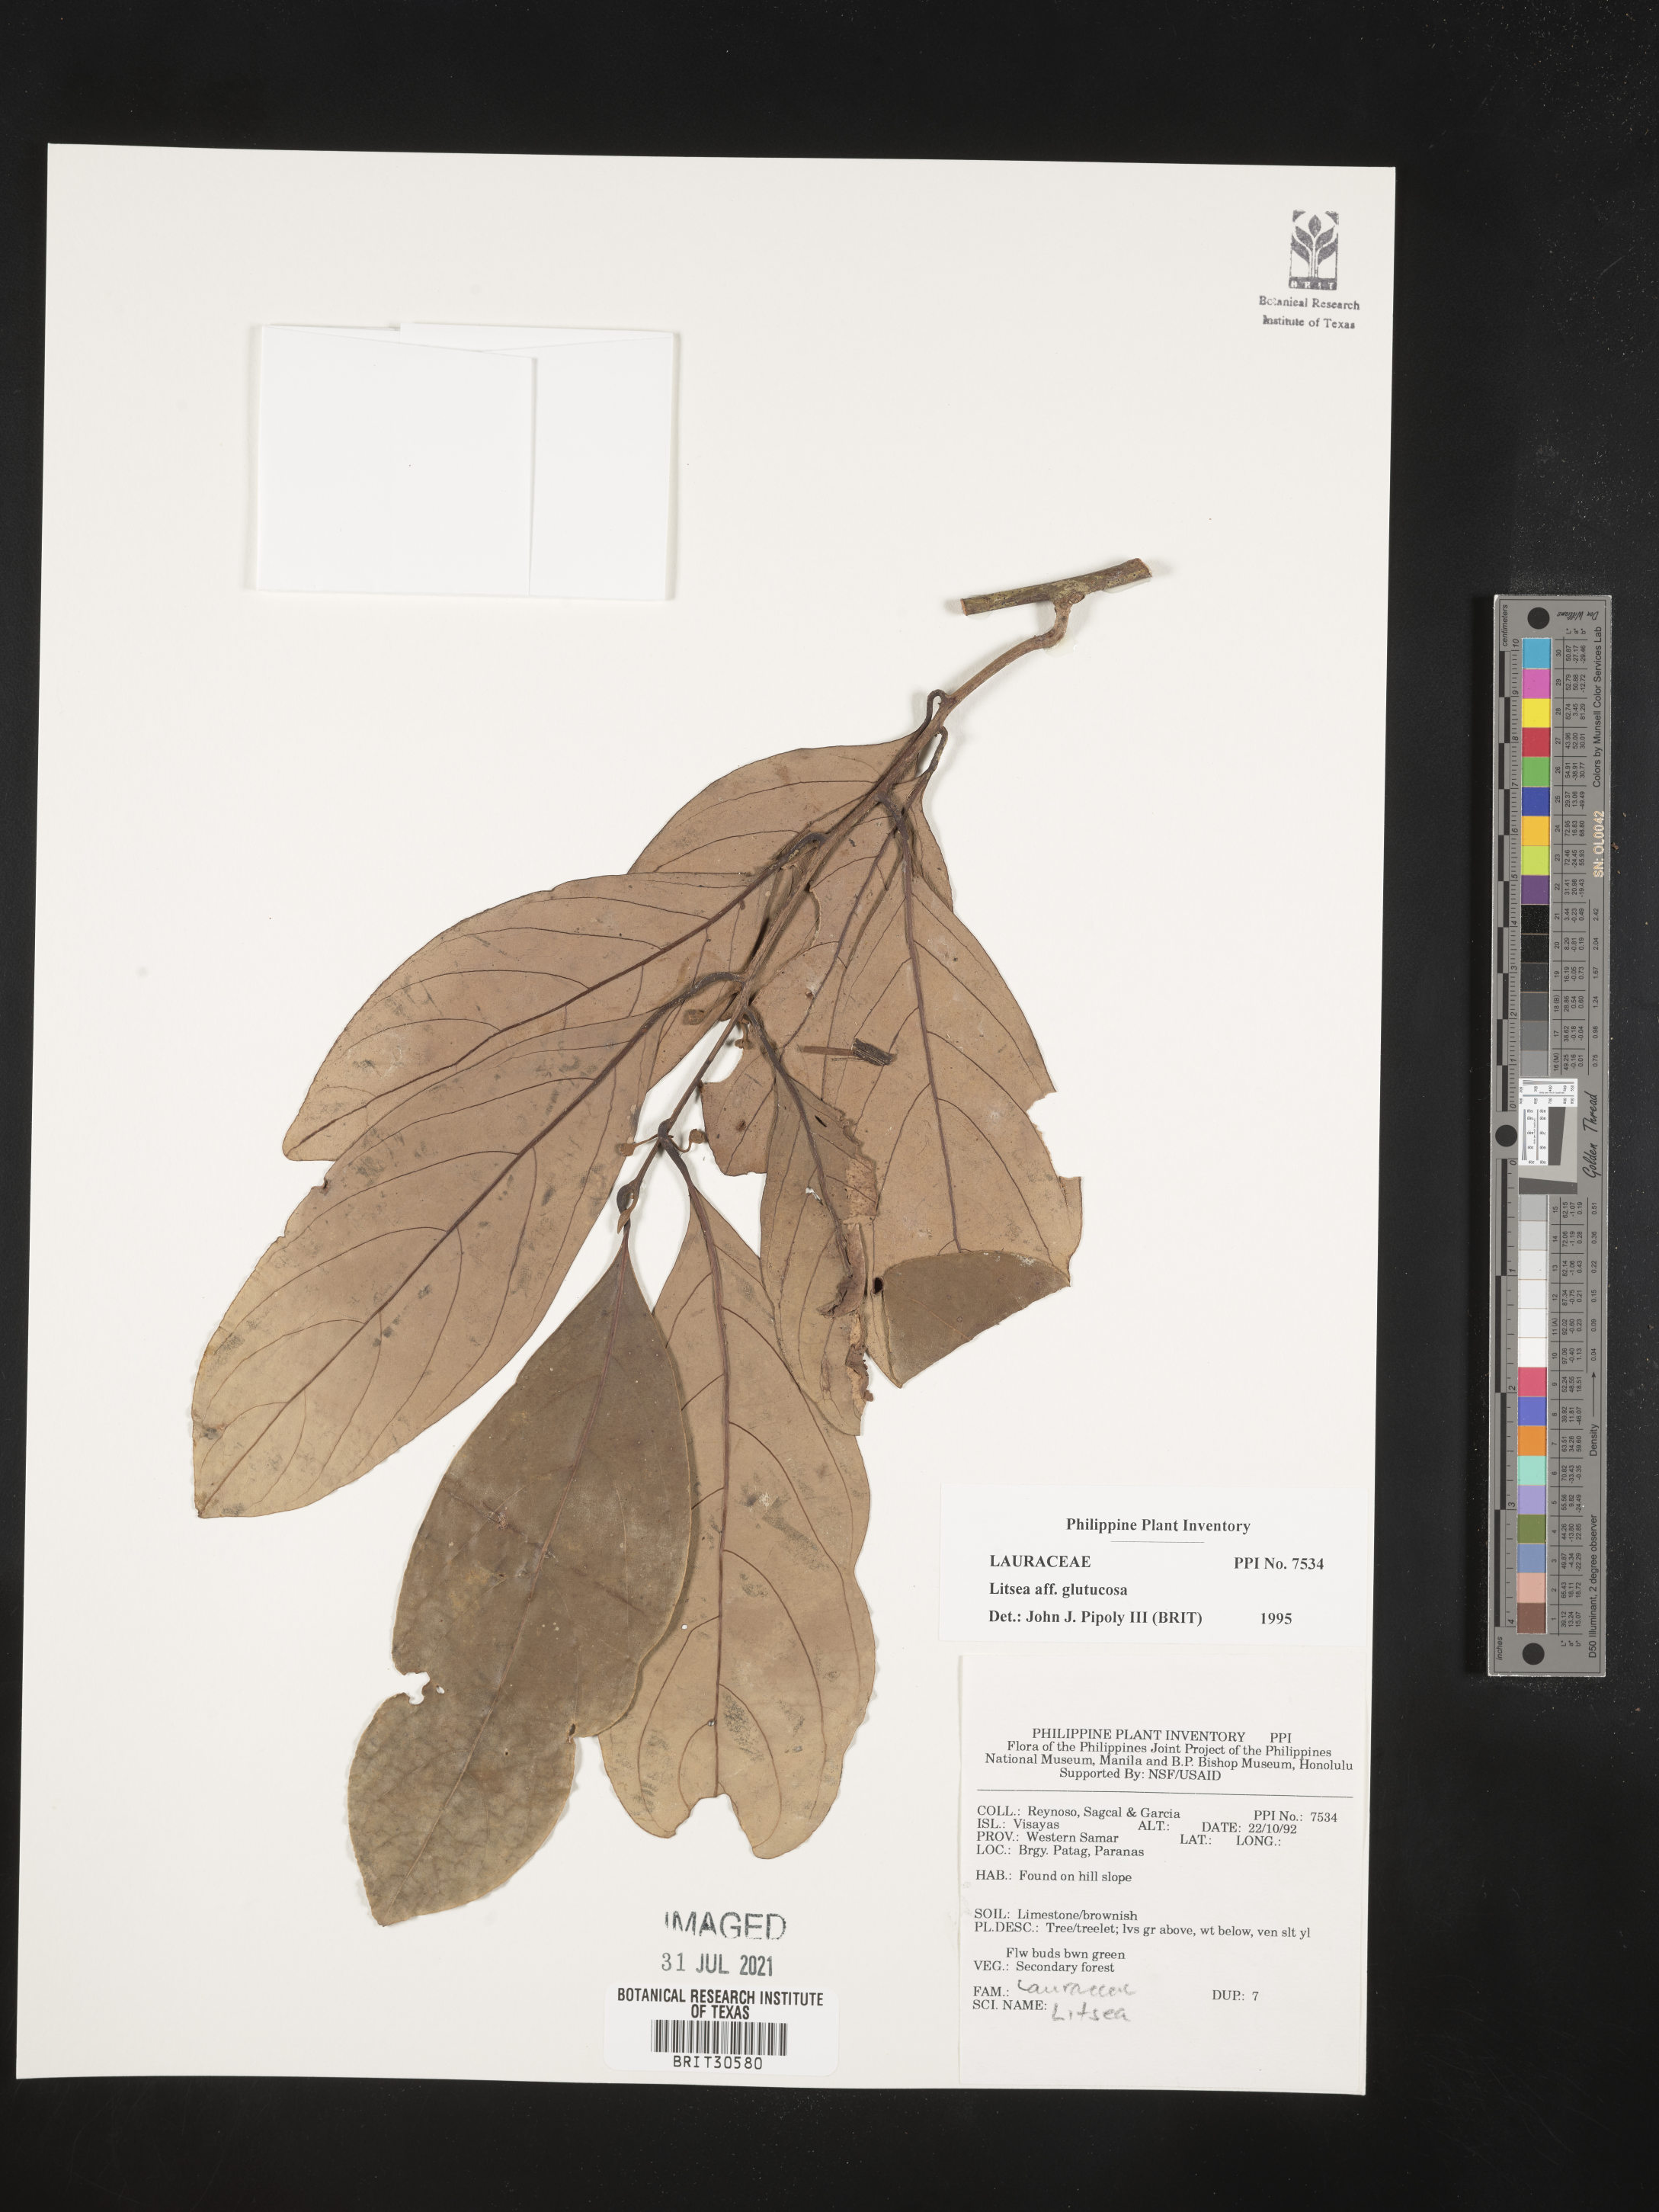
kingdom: Plantae
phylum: Tracheophyta
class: Magnoliopsida
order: Laurales
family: Lauraceae
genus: Litsea
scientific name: Litsea glutinosa
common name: Indian-laurel
